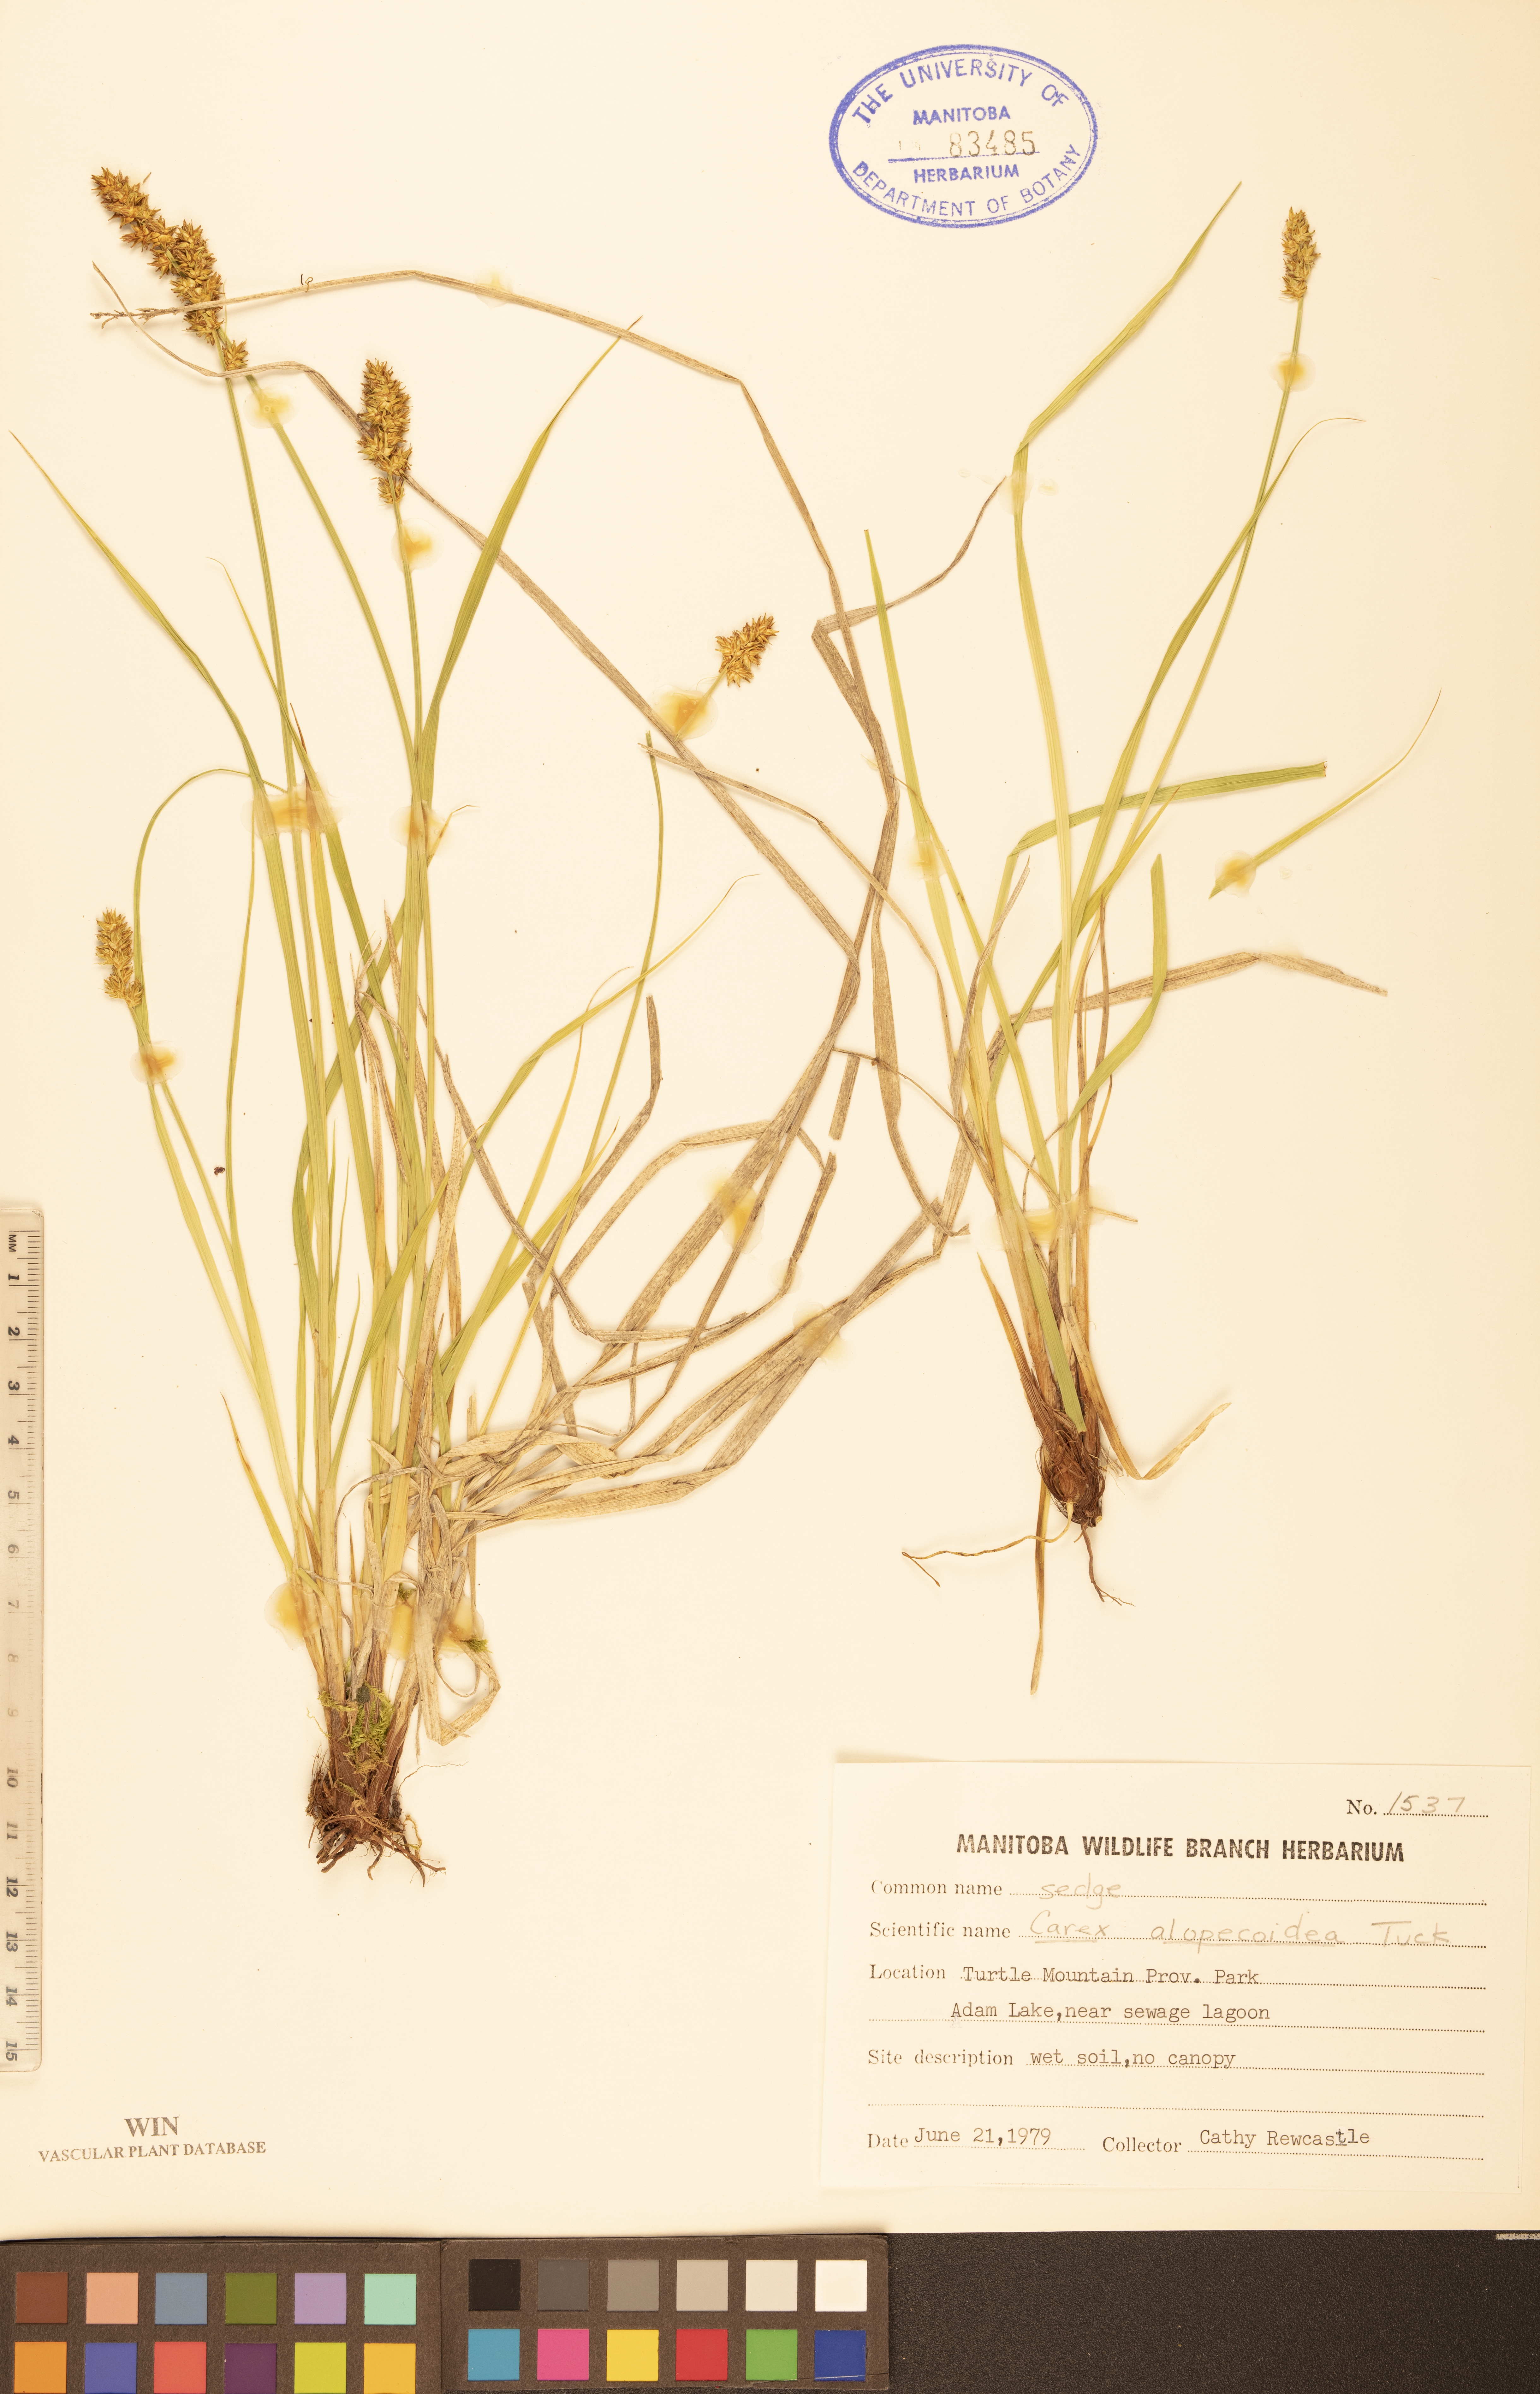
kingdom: Plantae
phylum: Tracheophyta
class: Liliopsida
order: Poales
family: Cyperaceae
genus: Carex
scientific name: Carex alopecoidea
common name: Brown-headed fox sedge
